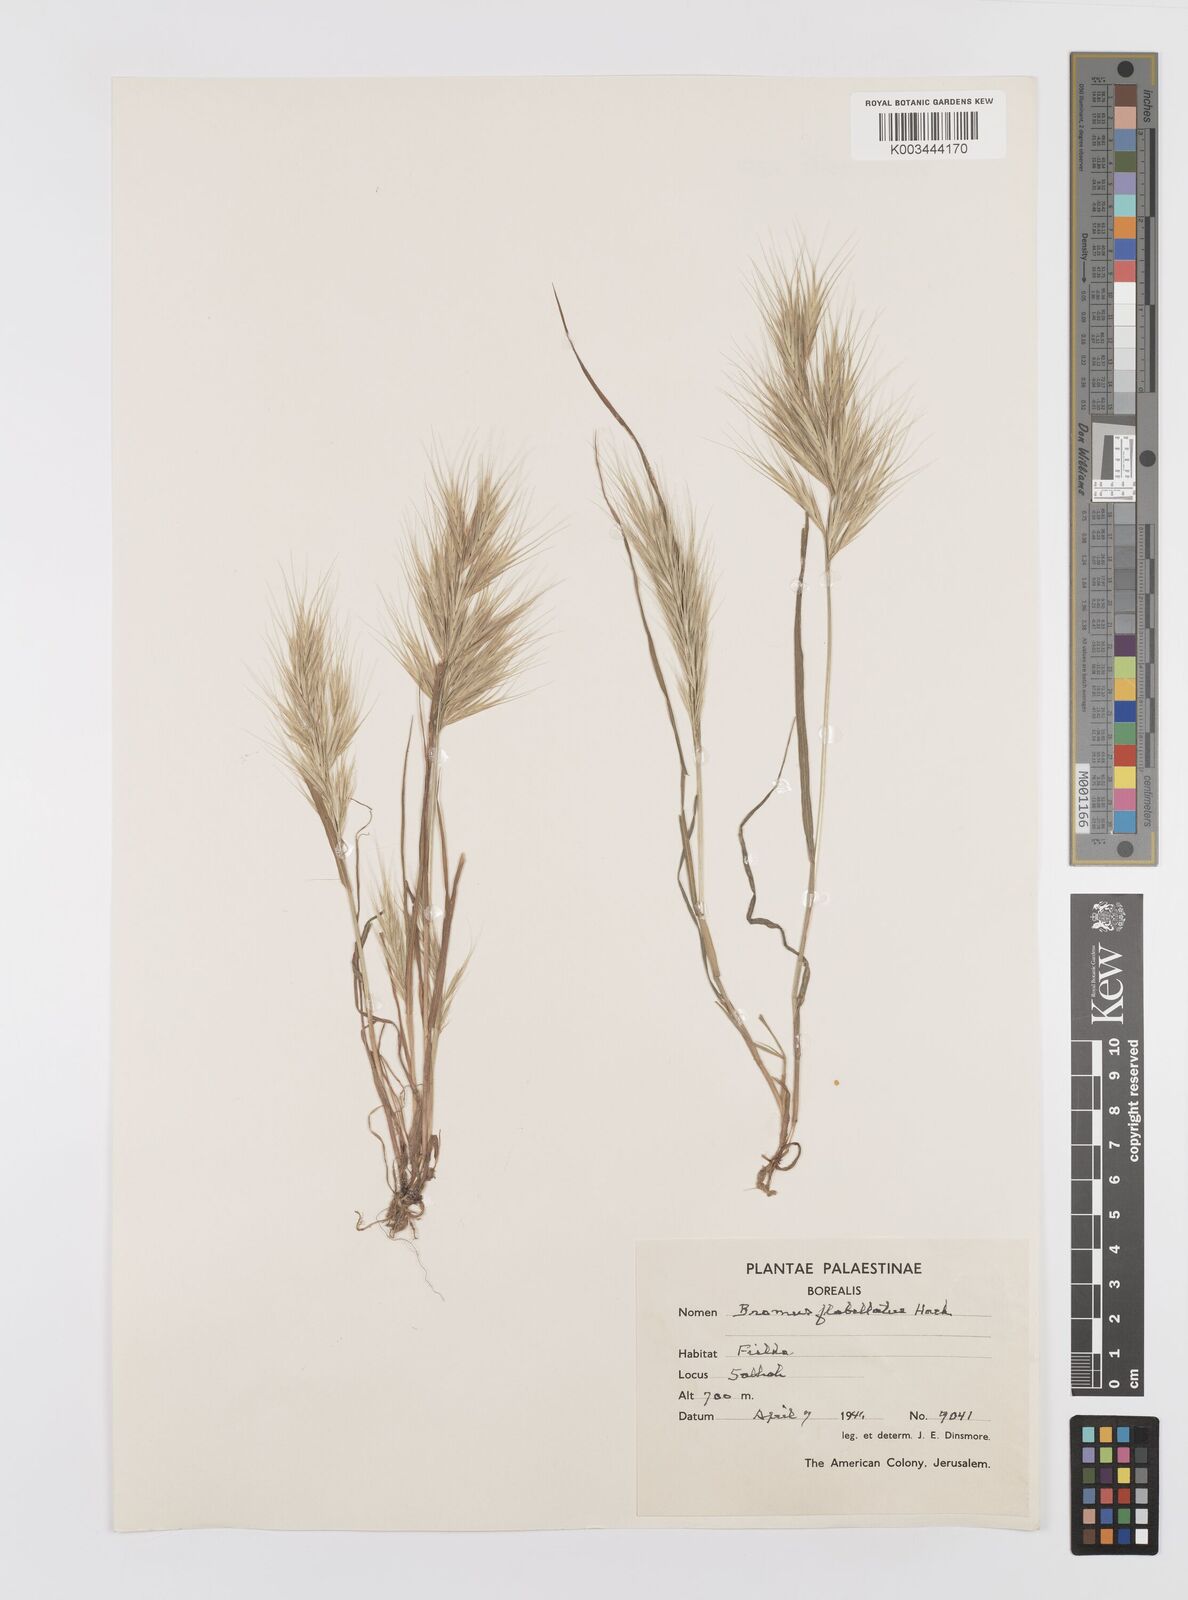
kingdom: Plantae
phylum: Tracheophyta
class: Liliopsida
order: Poales
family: Poaceae
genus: Bromus
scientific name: Bromus madritensis
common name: Compact brome
